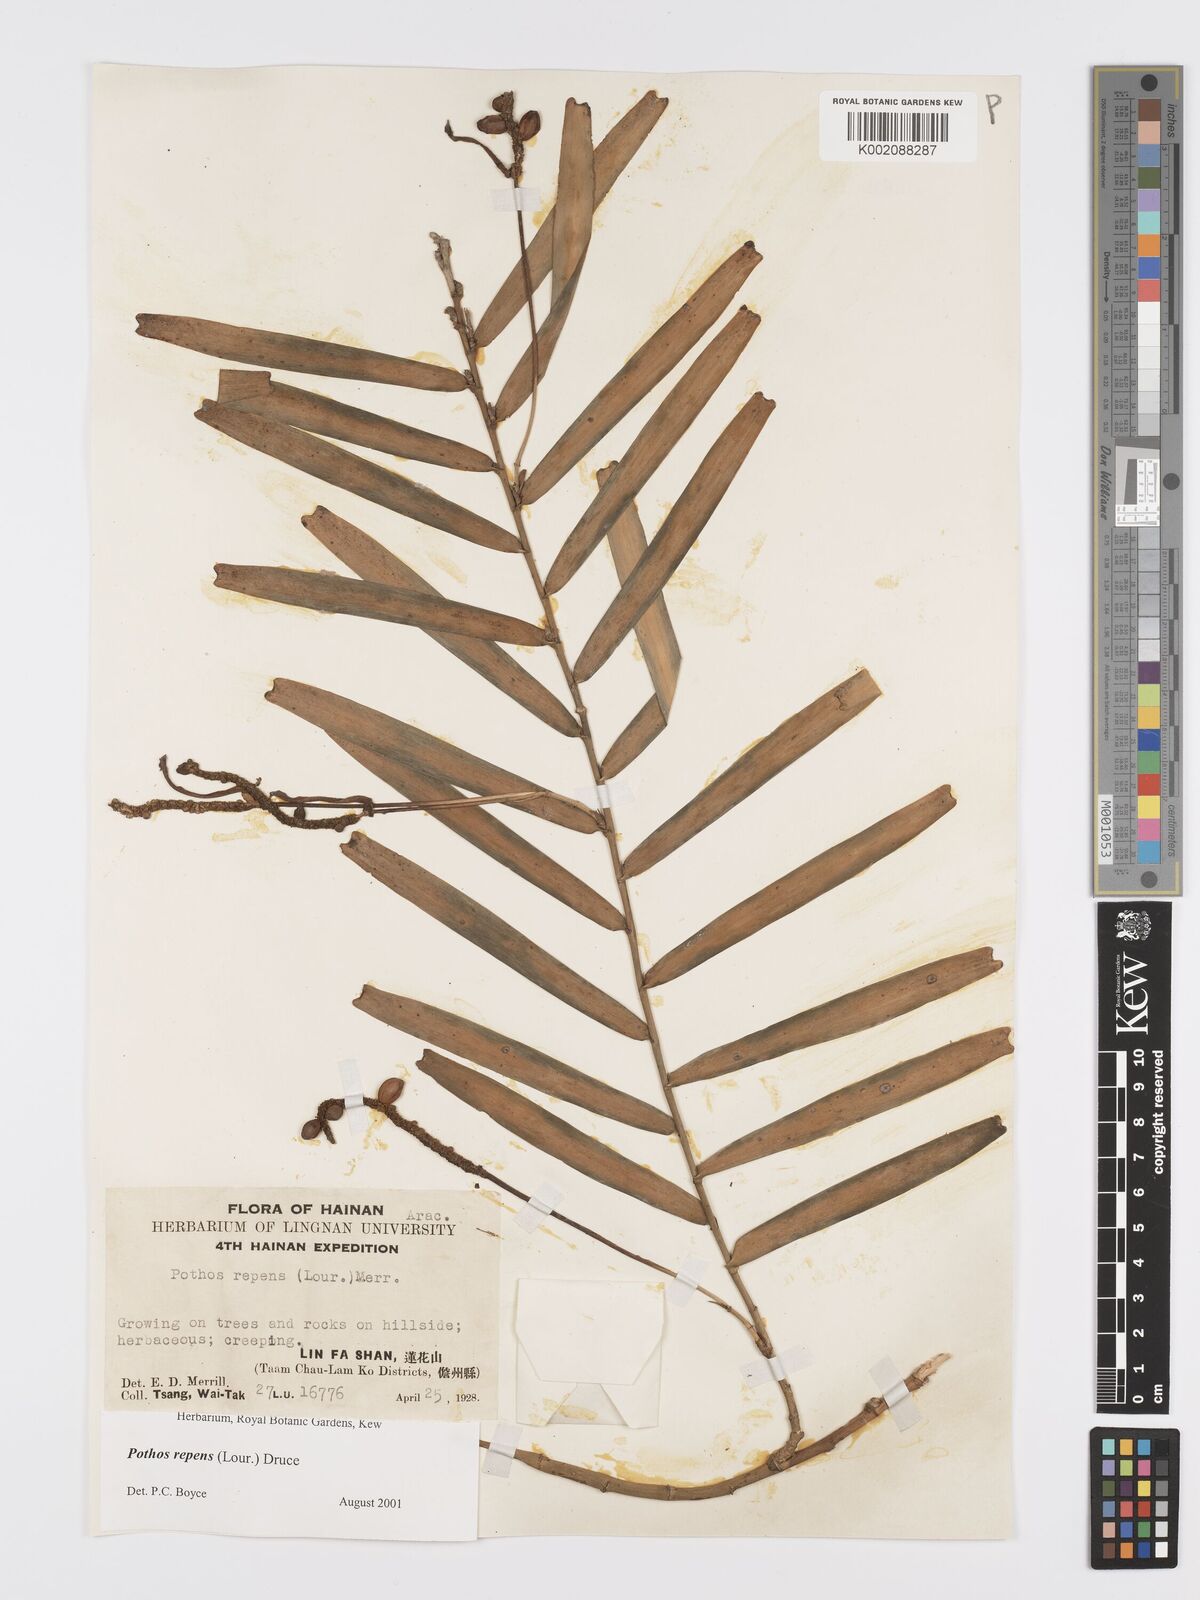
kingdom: Plantae
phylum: Tracheophyta
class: Liliopsida
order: Alismatales
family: Araceae
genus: Pothos
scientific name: Pothos repens
